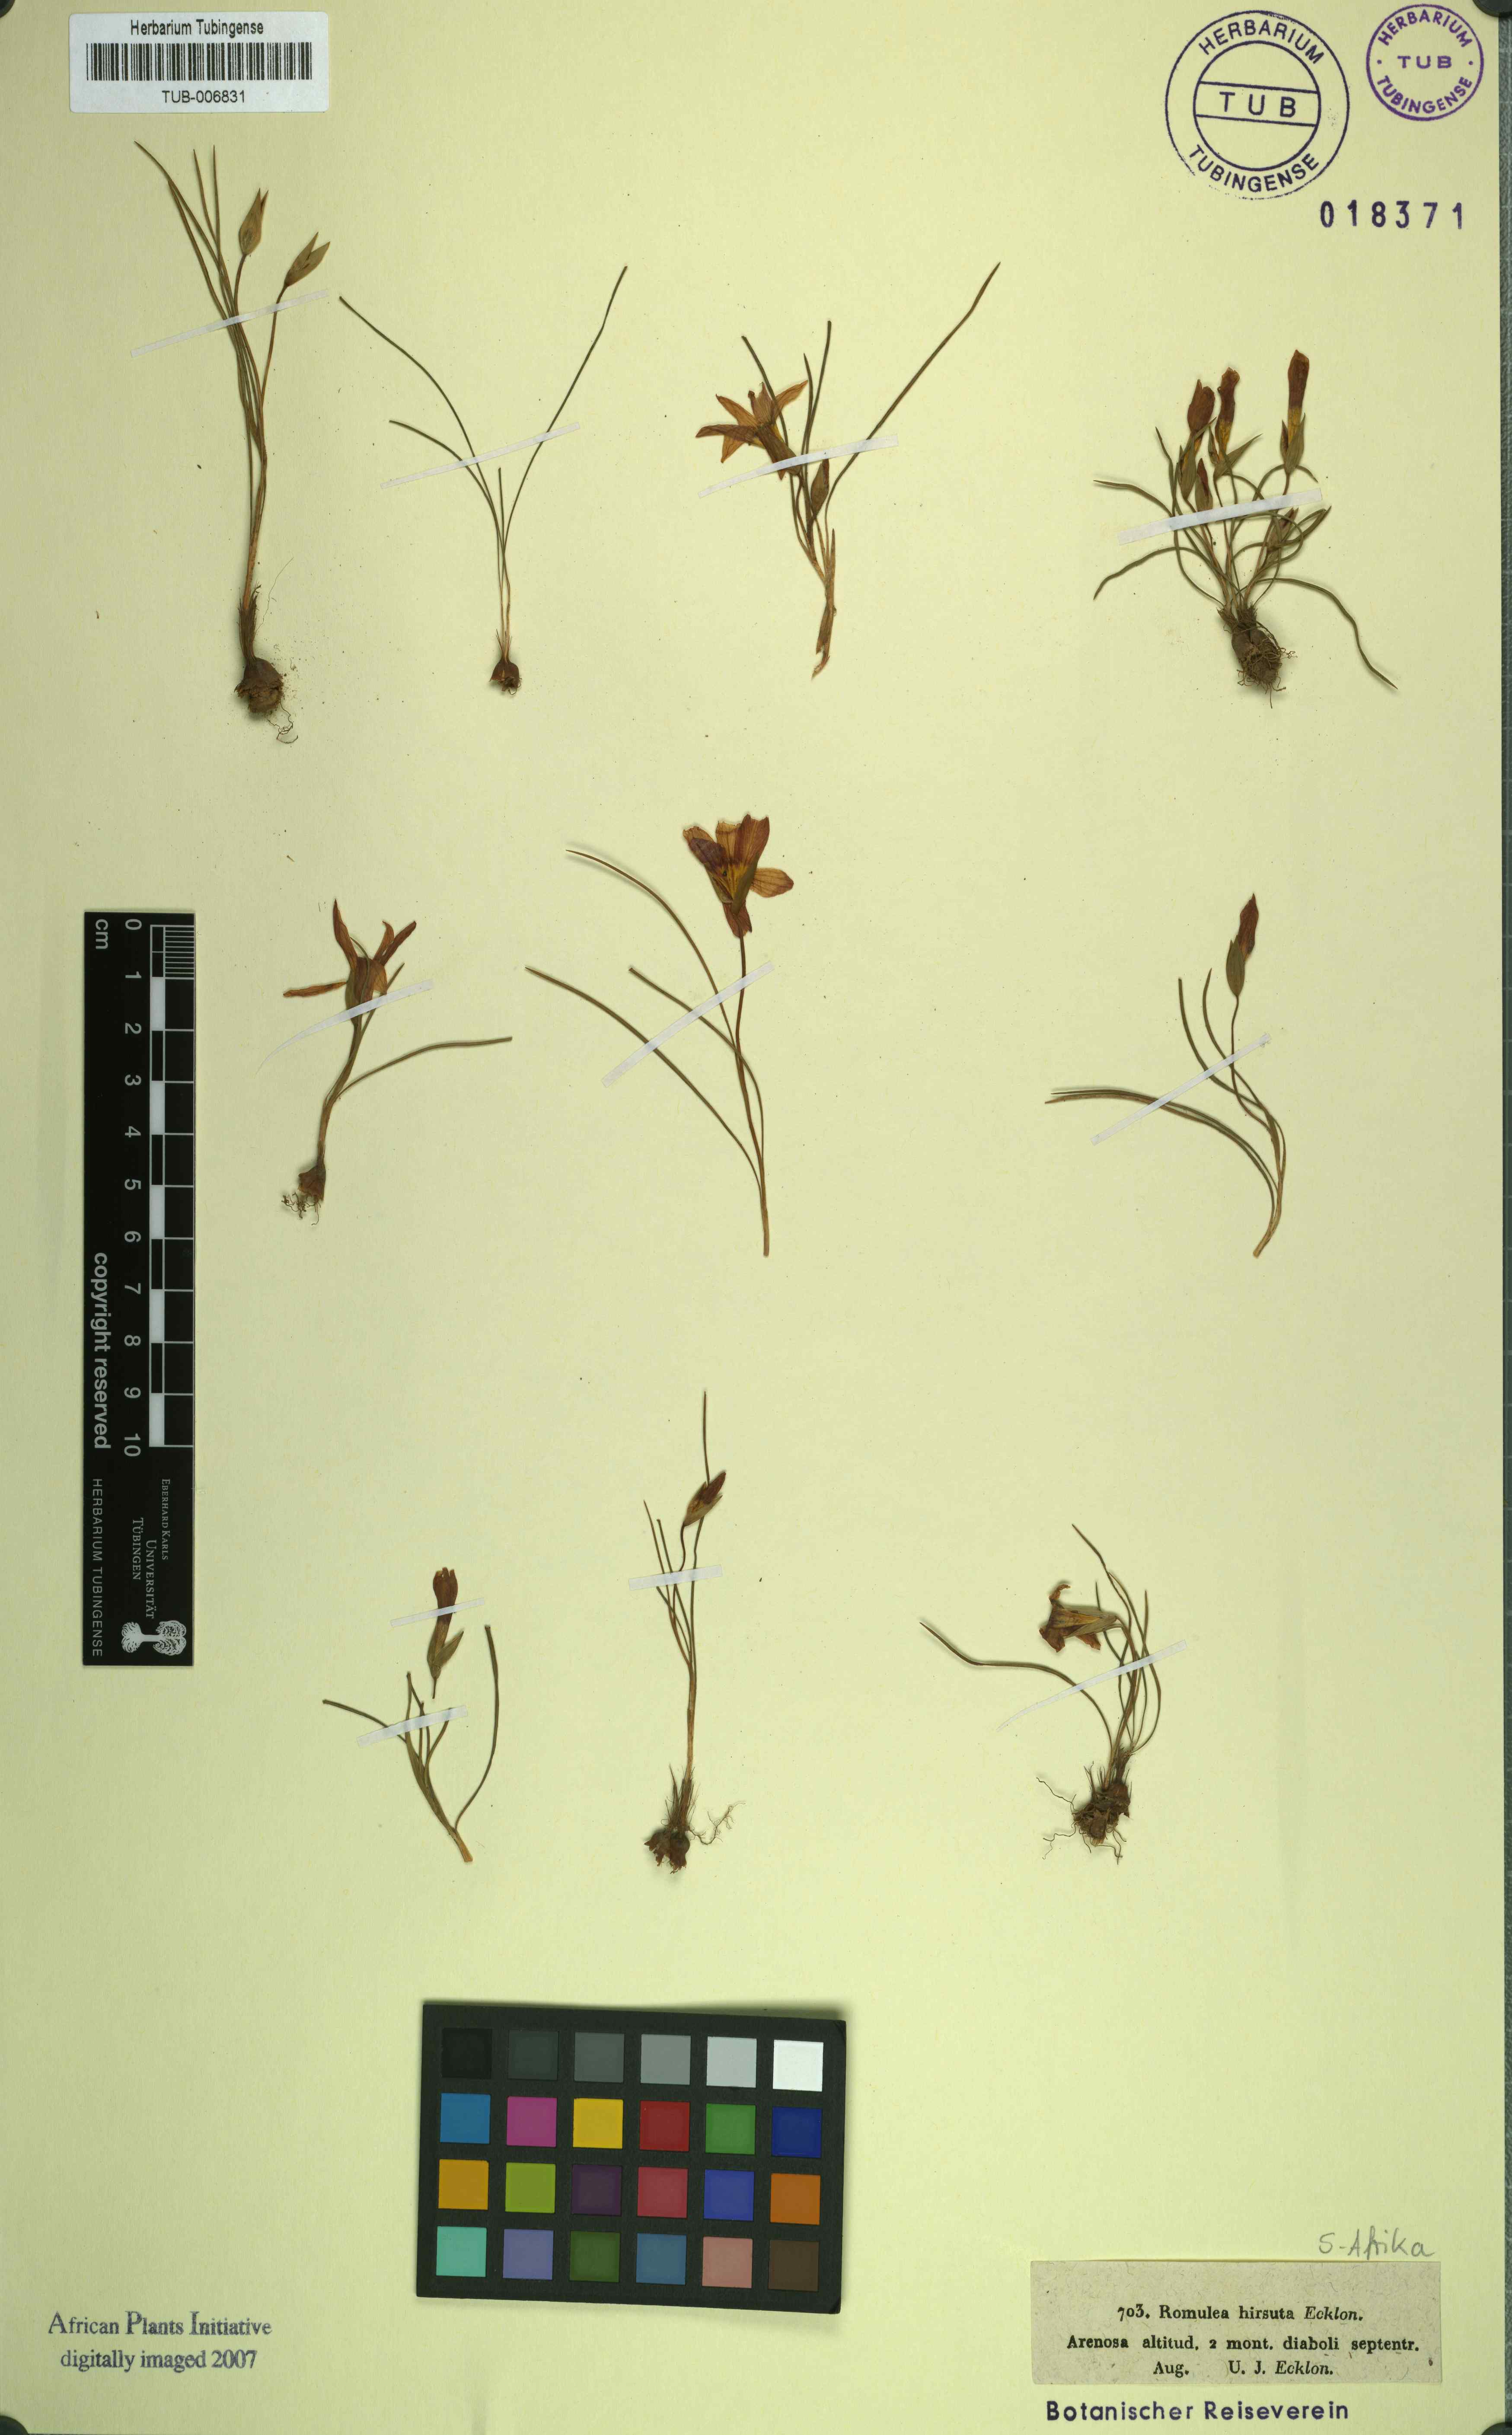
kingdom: Plantae
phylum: Tracheophyta
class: Liliopsida
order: Asparagales
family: Iridaceae
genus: Romulea
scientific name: Romulea hirsuta
